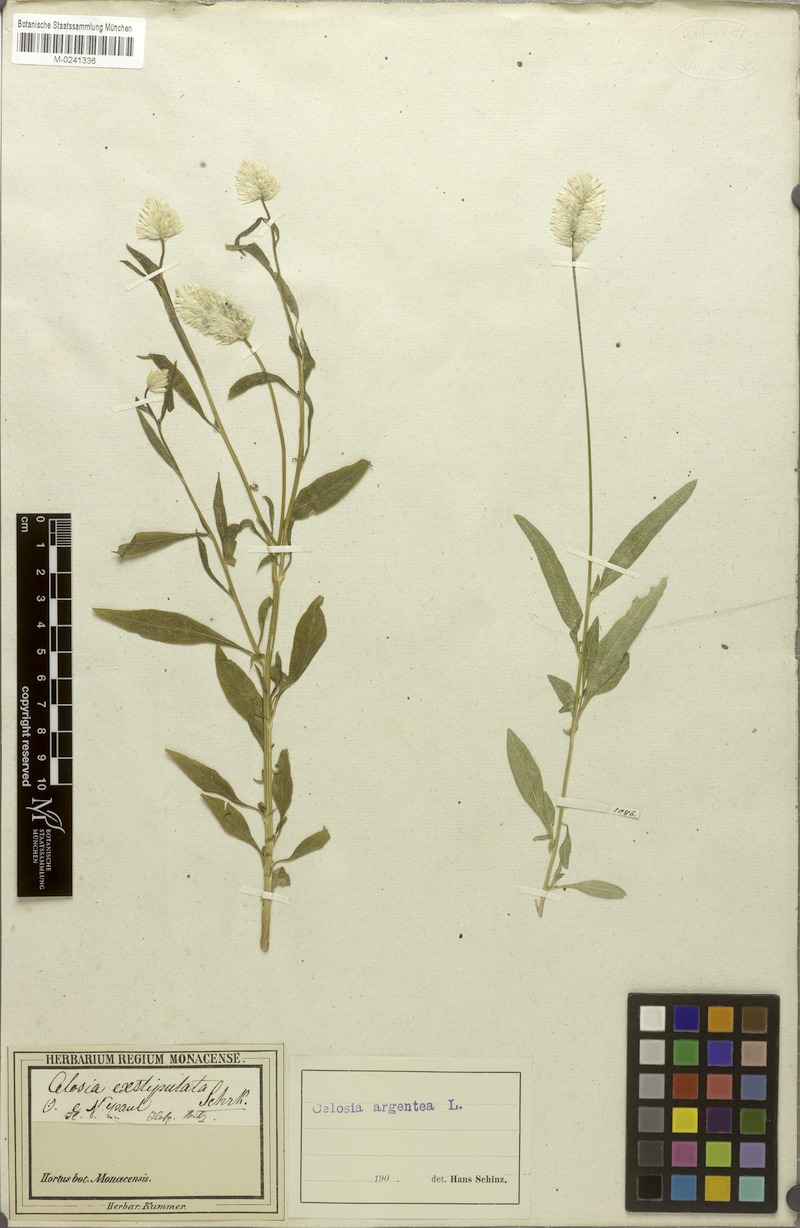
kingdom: Plantae
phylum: Tracheophyta
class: Magnoliopsida
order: Caryophyllales
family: Amaranthaceae
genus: Celosia
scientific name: Celosia argentea
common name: Feather cockscomb
